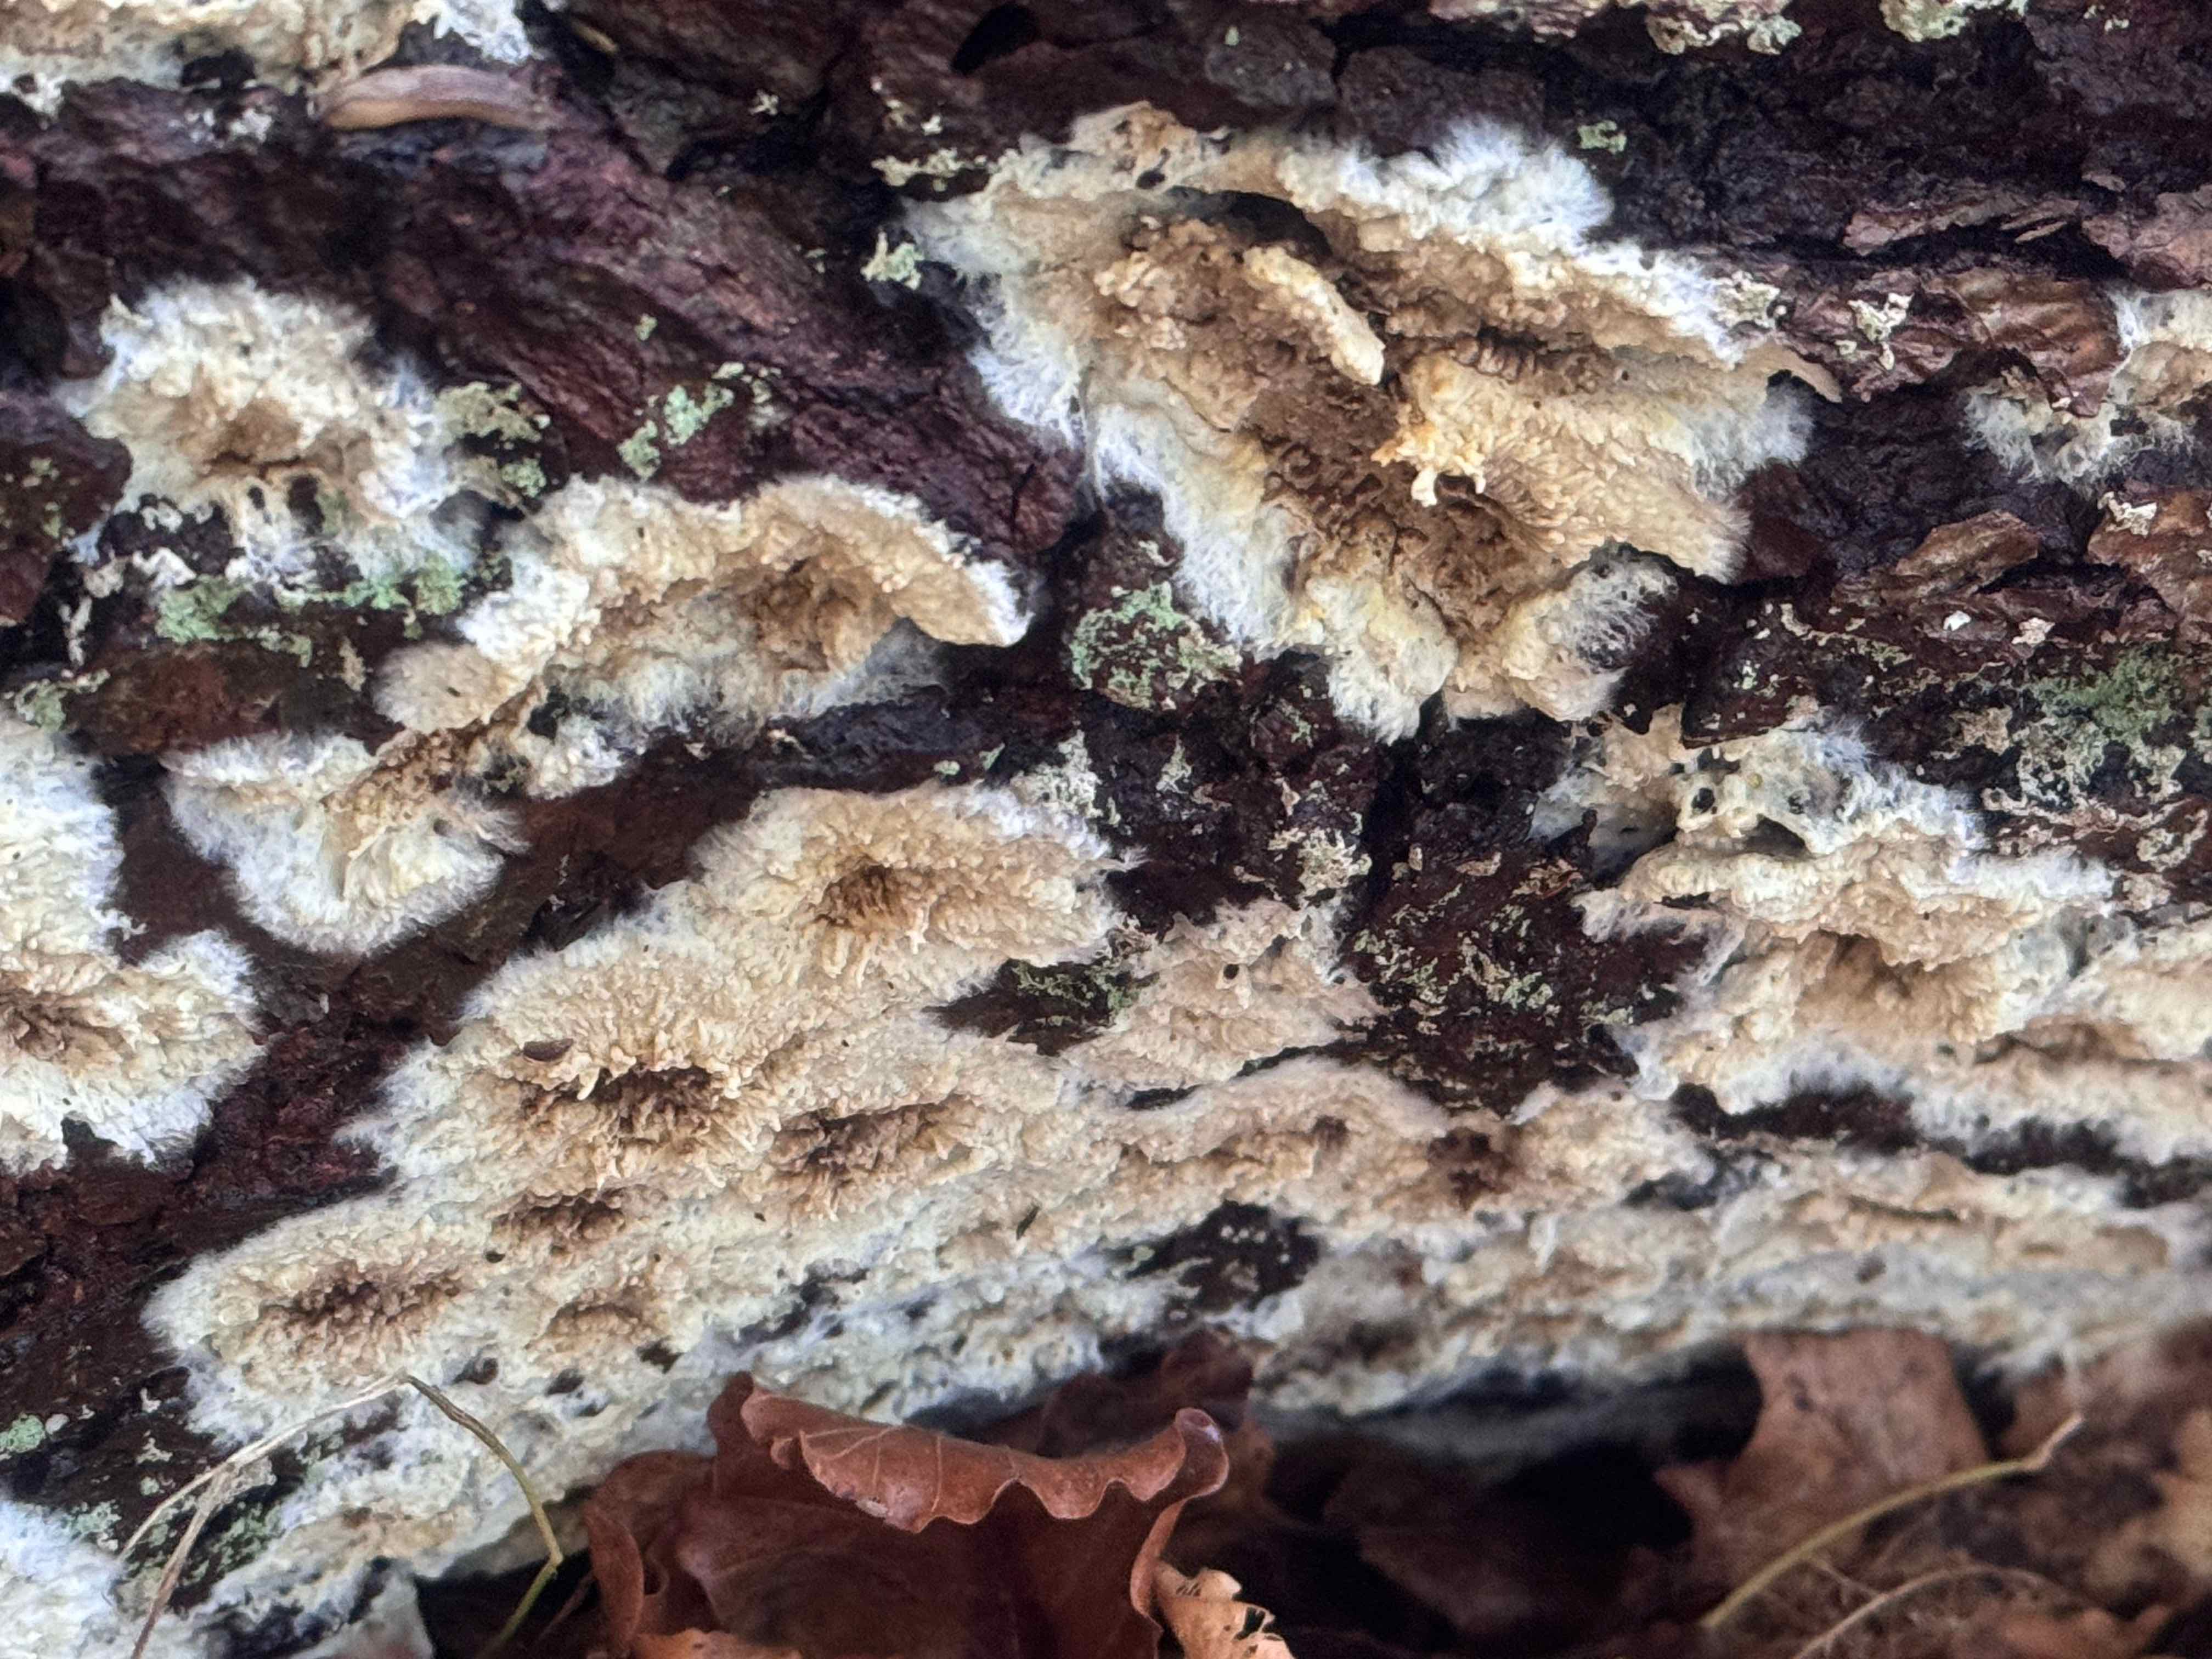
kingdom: Fungi
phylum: Basidiomycota
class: Agaricomycetes
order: Boletales
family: Coniophoraceae
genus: Coniophora
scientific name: Coniophora puteana
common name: gul tømmersvamp
